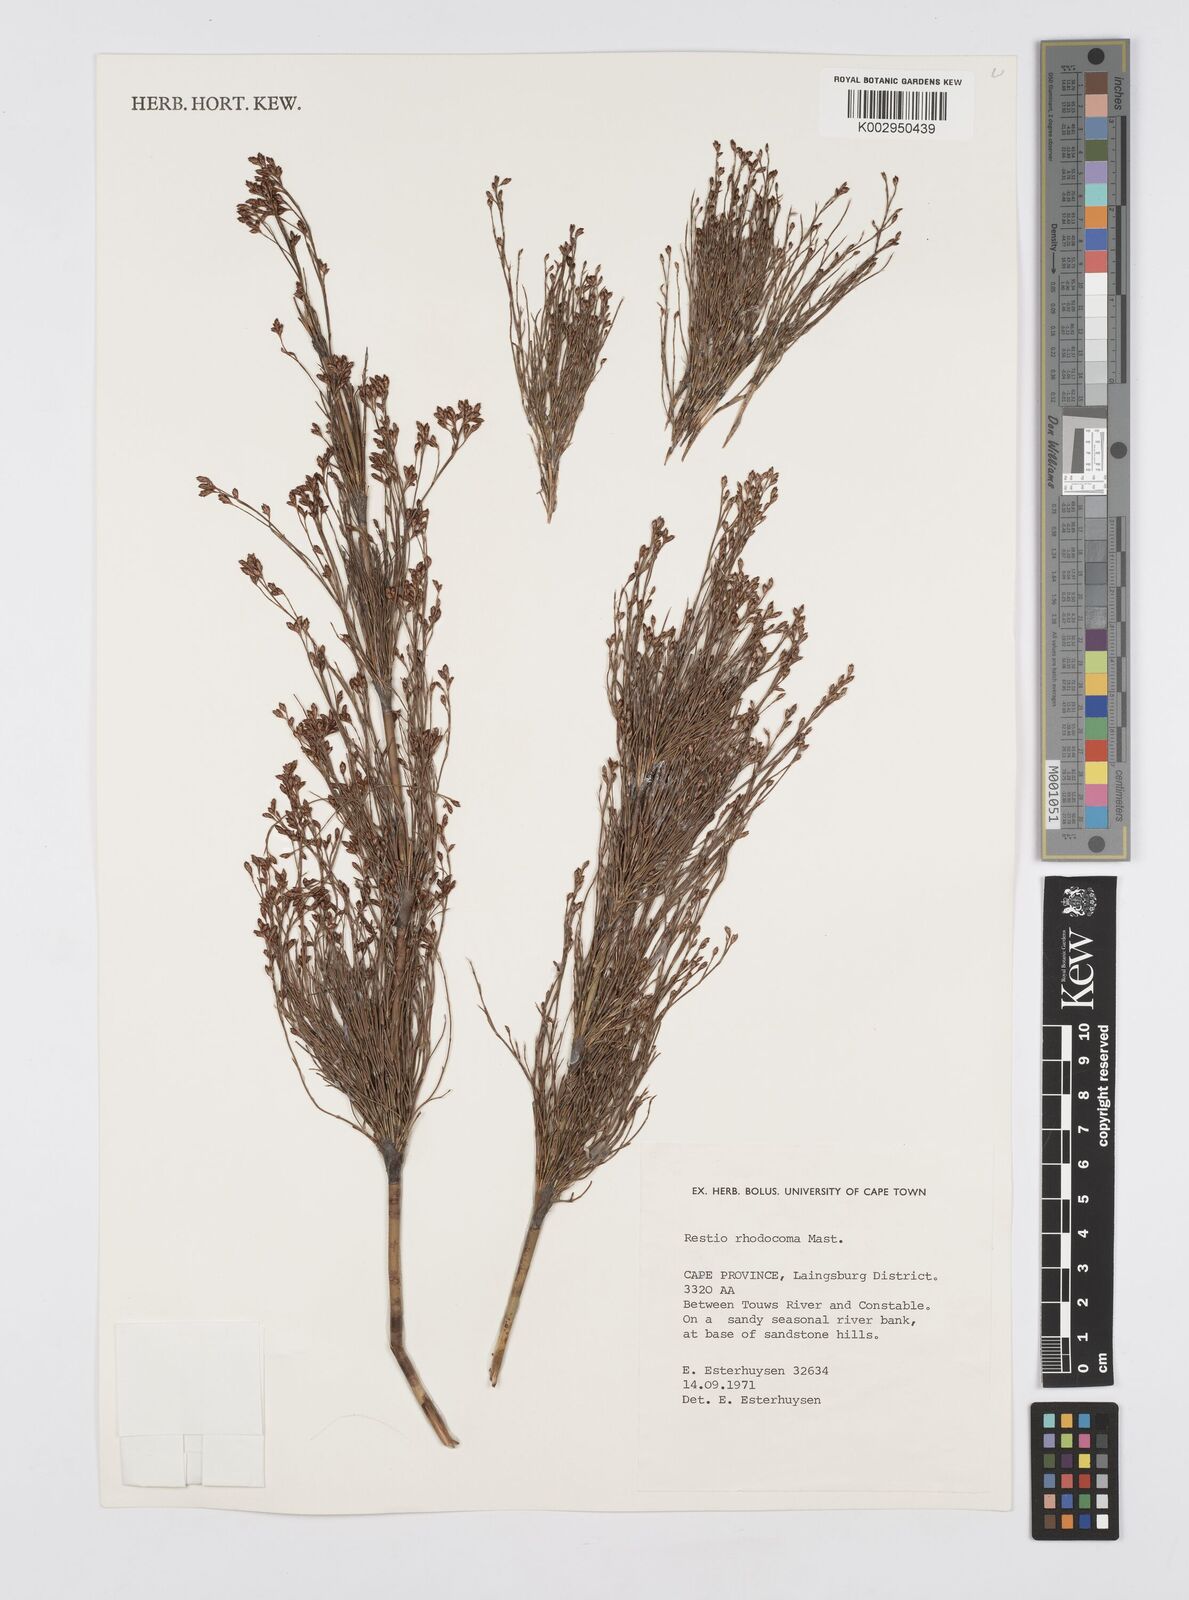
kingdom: Plantae
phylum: Tracheophyta
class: Liliopsida
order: Poales
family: Restionaceae
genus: Rhodocoma
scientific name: Rhodocoma capensis
